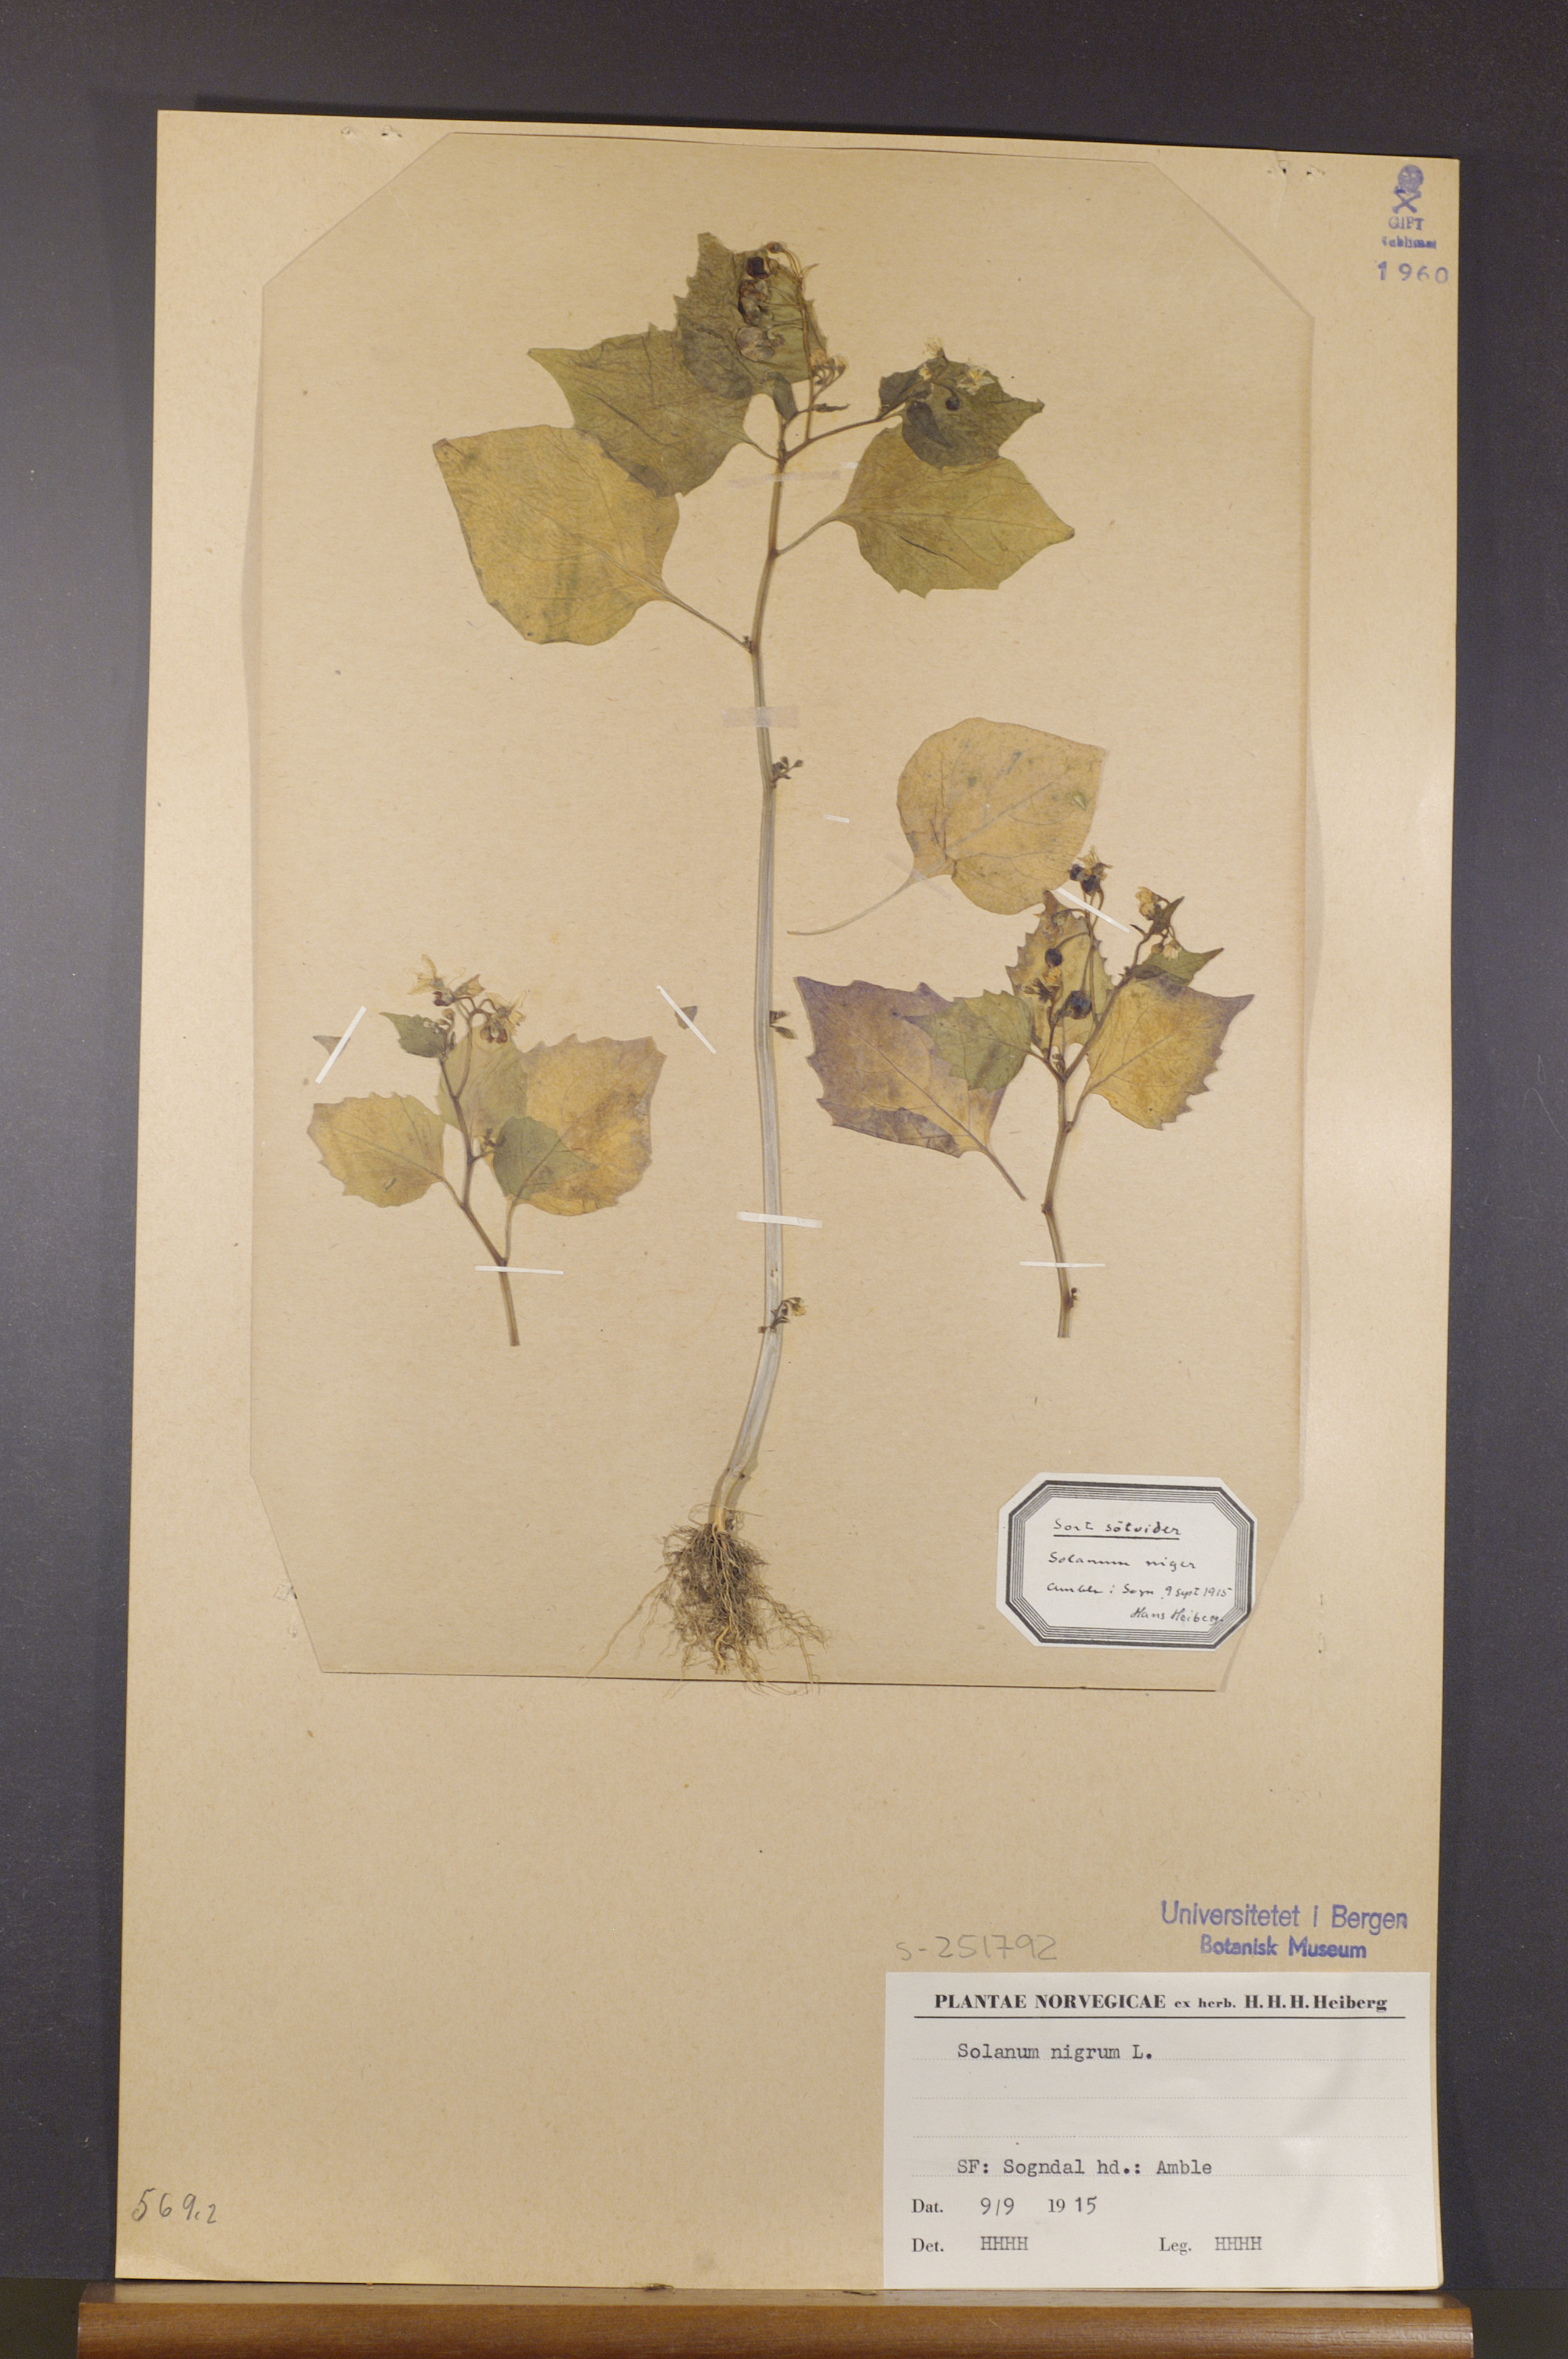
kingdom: Plantae
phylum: Tracheophyta
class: Magnoliopsida
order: Solanales
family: Solanaceae
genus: Solanum
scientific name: Solanum nigrum
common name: Black nightshade
